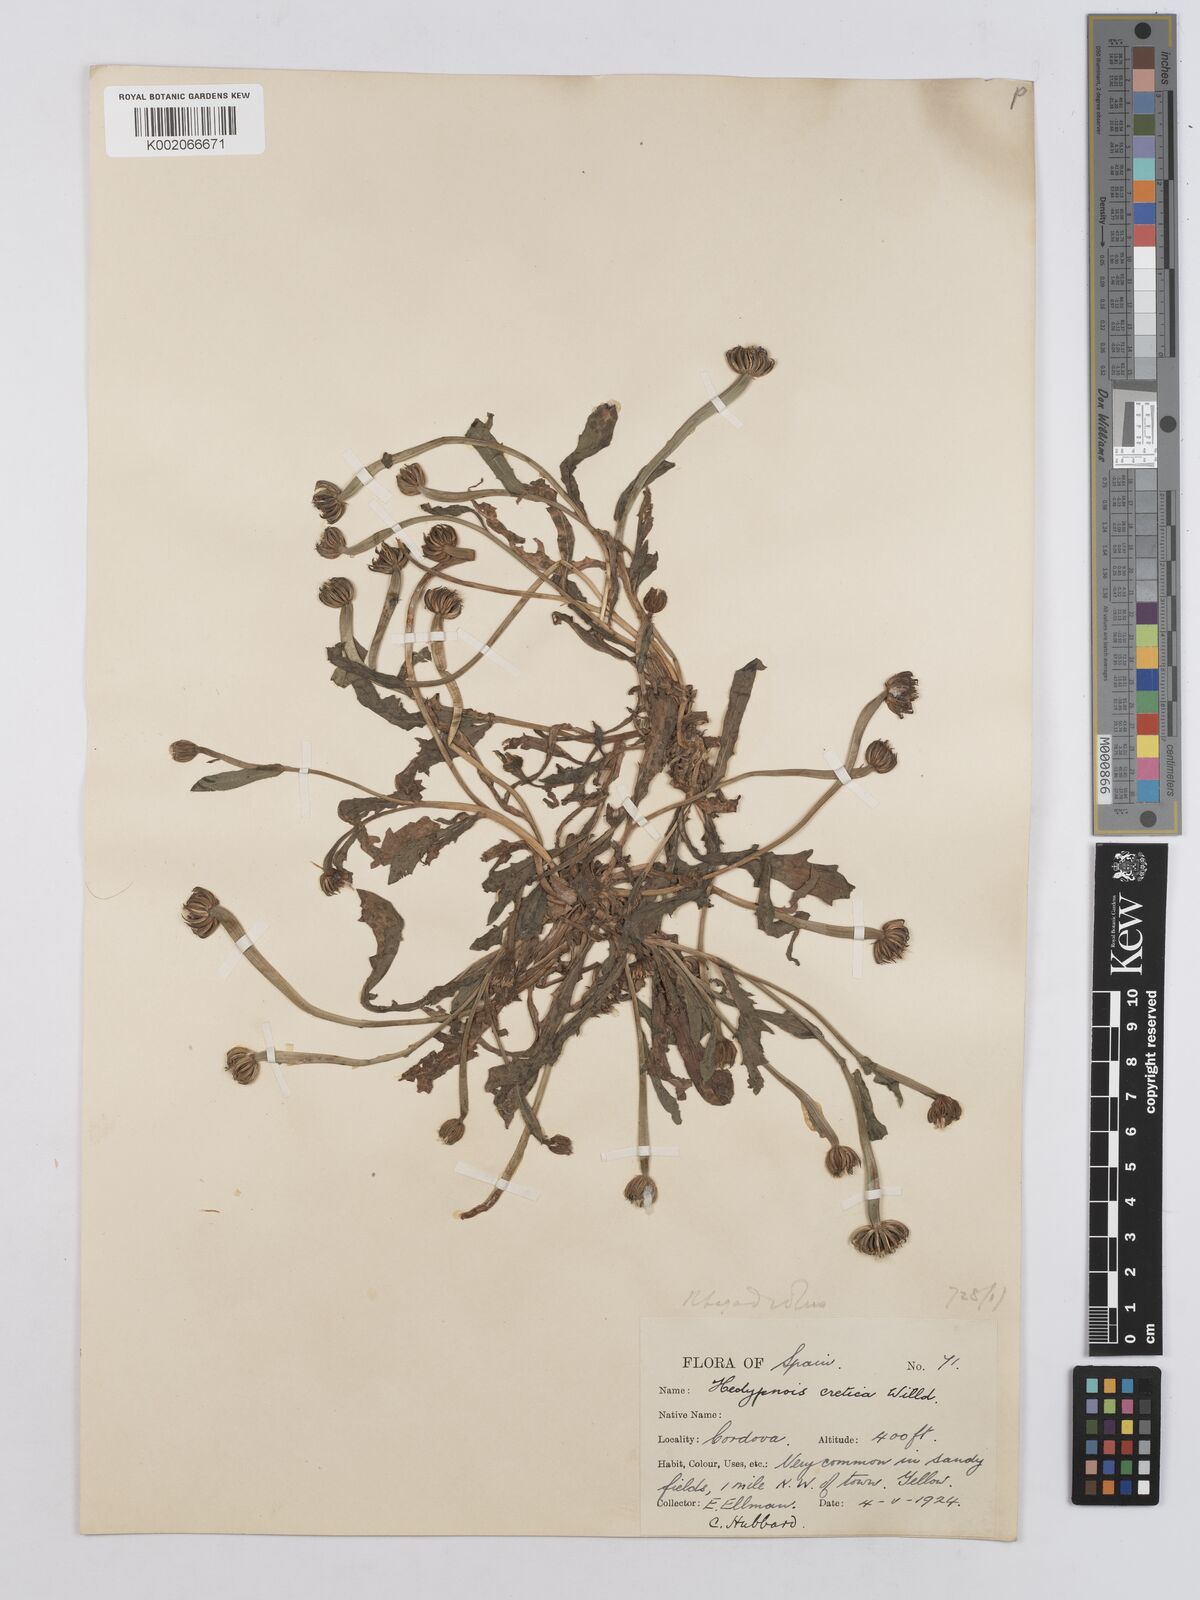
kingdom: Plantae
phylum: Tracheophyta
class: Magnoliopsida
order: Asterales
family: Asteraceae
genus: Hedypnois
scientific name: Hedypnois cretica
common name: Scaly hawkbit
